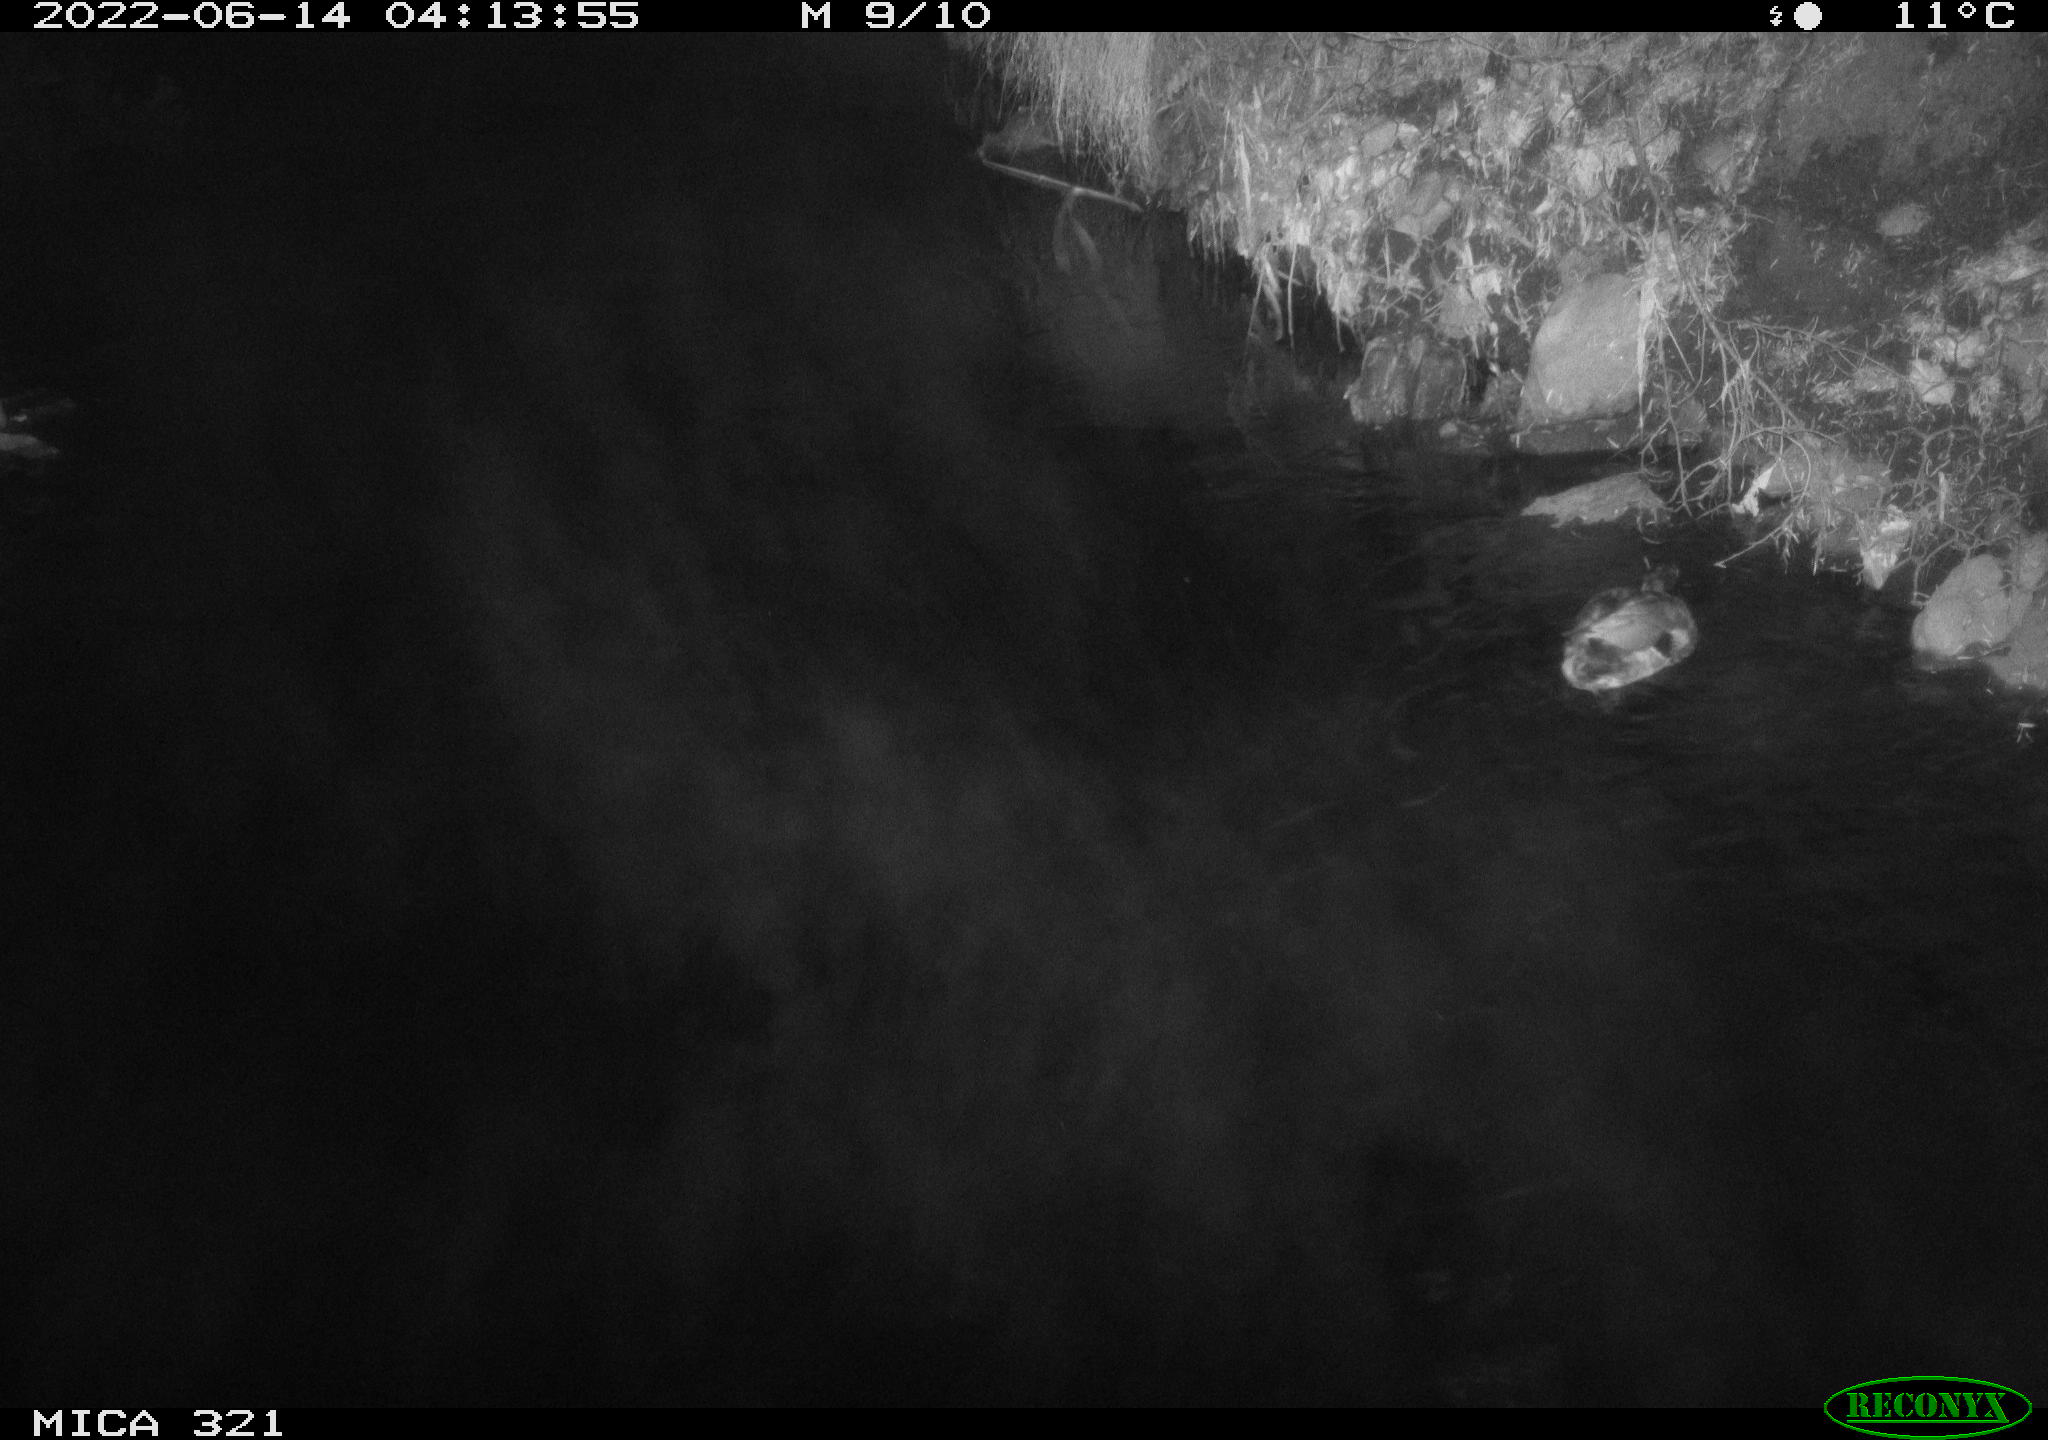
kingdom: Animalia
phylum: Chordata
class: Aves
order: Anseriformes
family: Anatidae
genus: Anas
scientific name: Anas platyrhynchos
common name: Mallard
